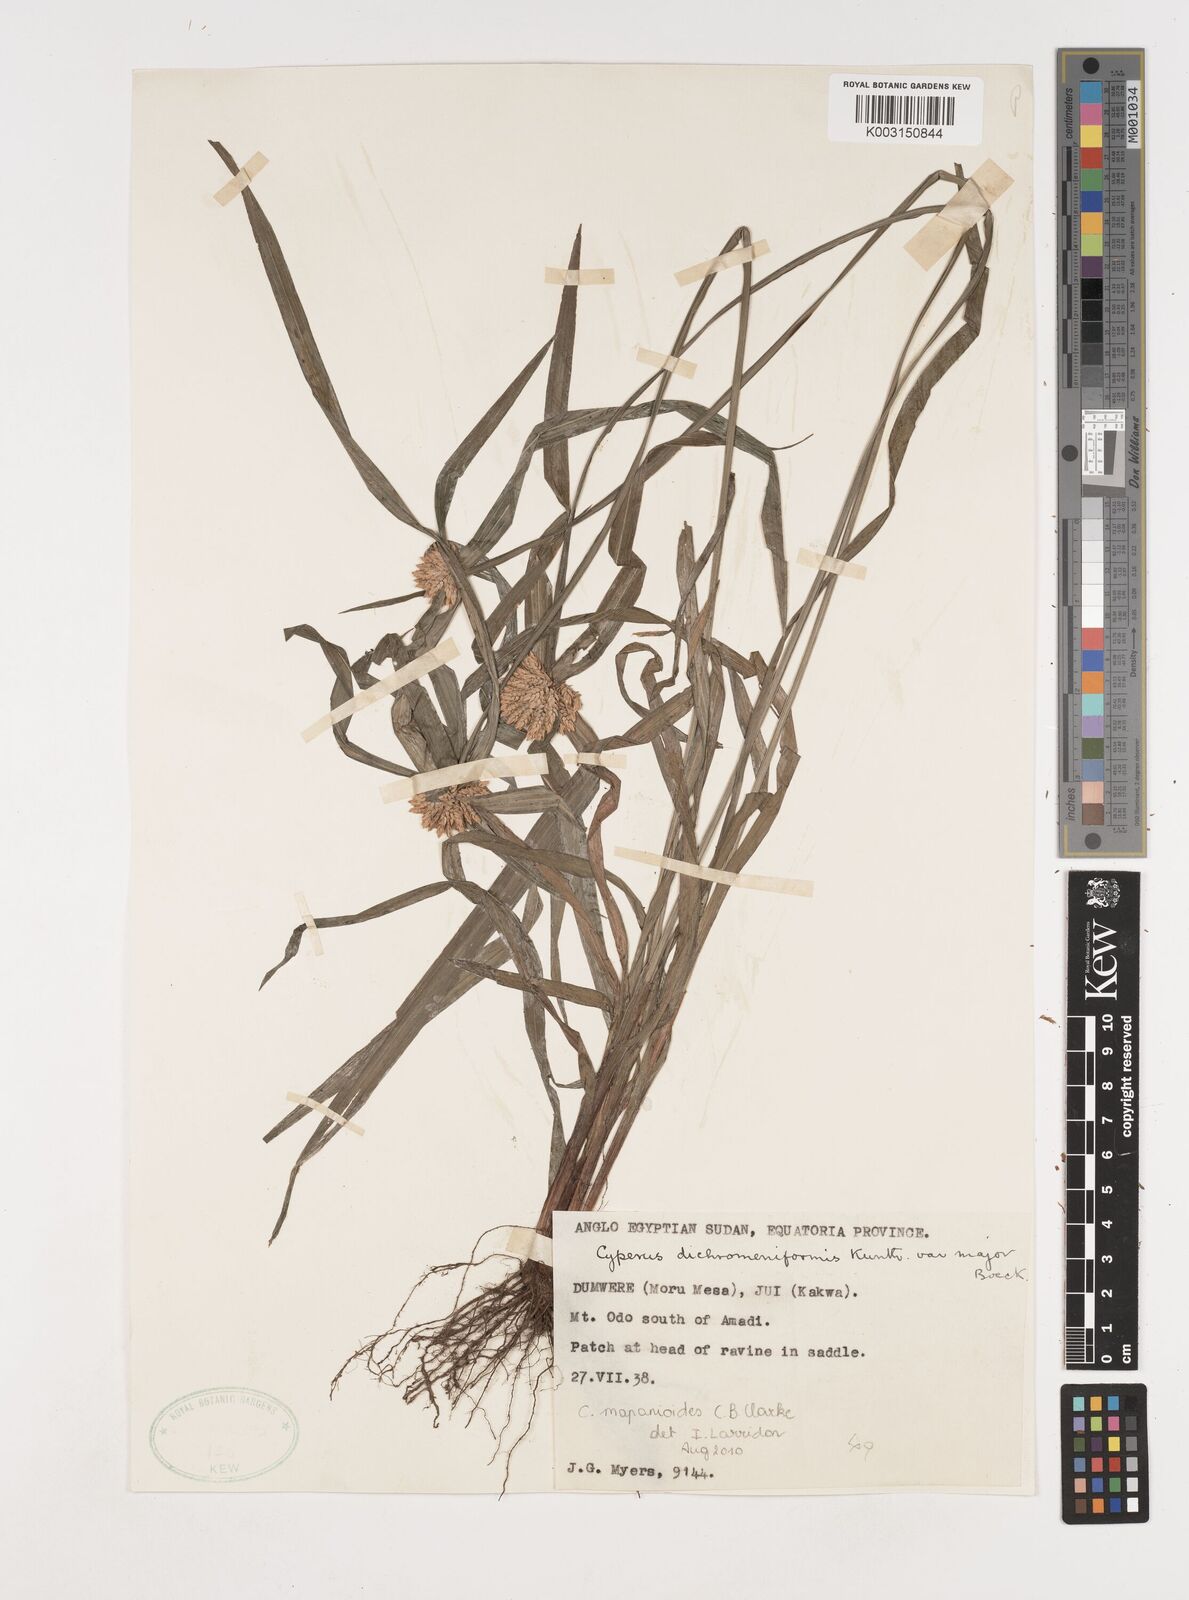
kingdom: Plantae
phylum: Tracheophyta
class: Liliopsida
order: Poales
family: Cyperaceae
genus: Cyperus
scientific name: Cyperus mapanioides
